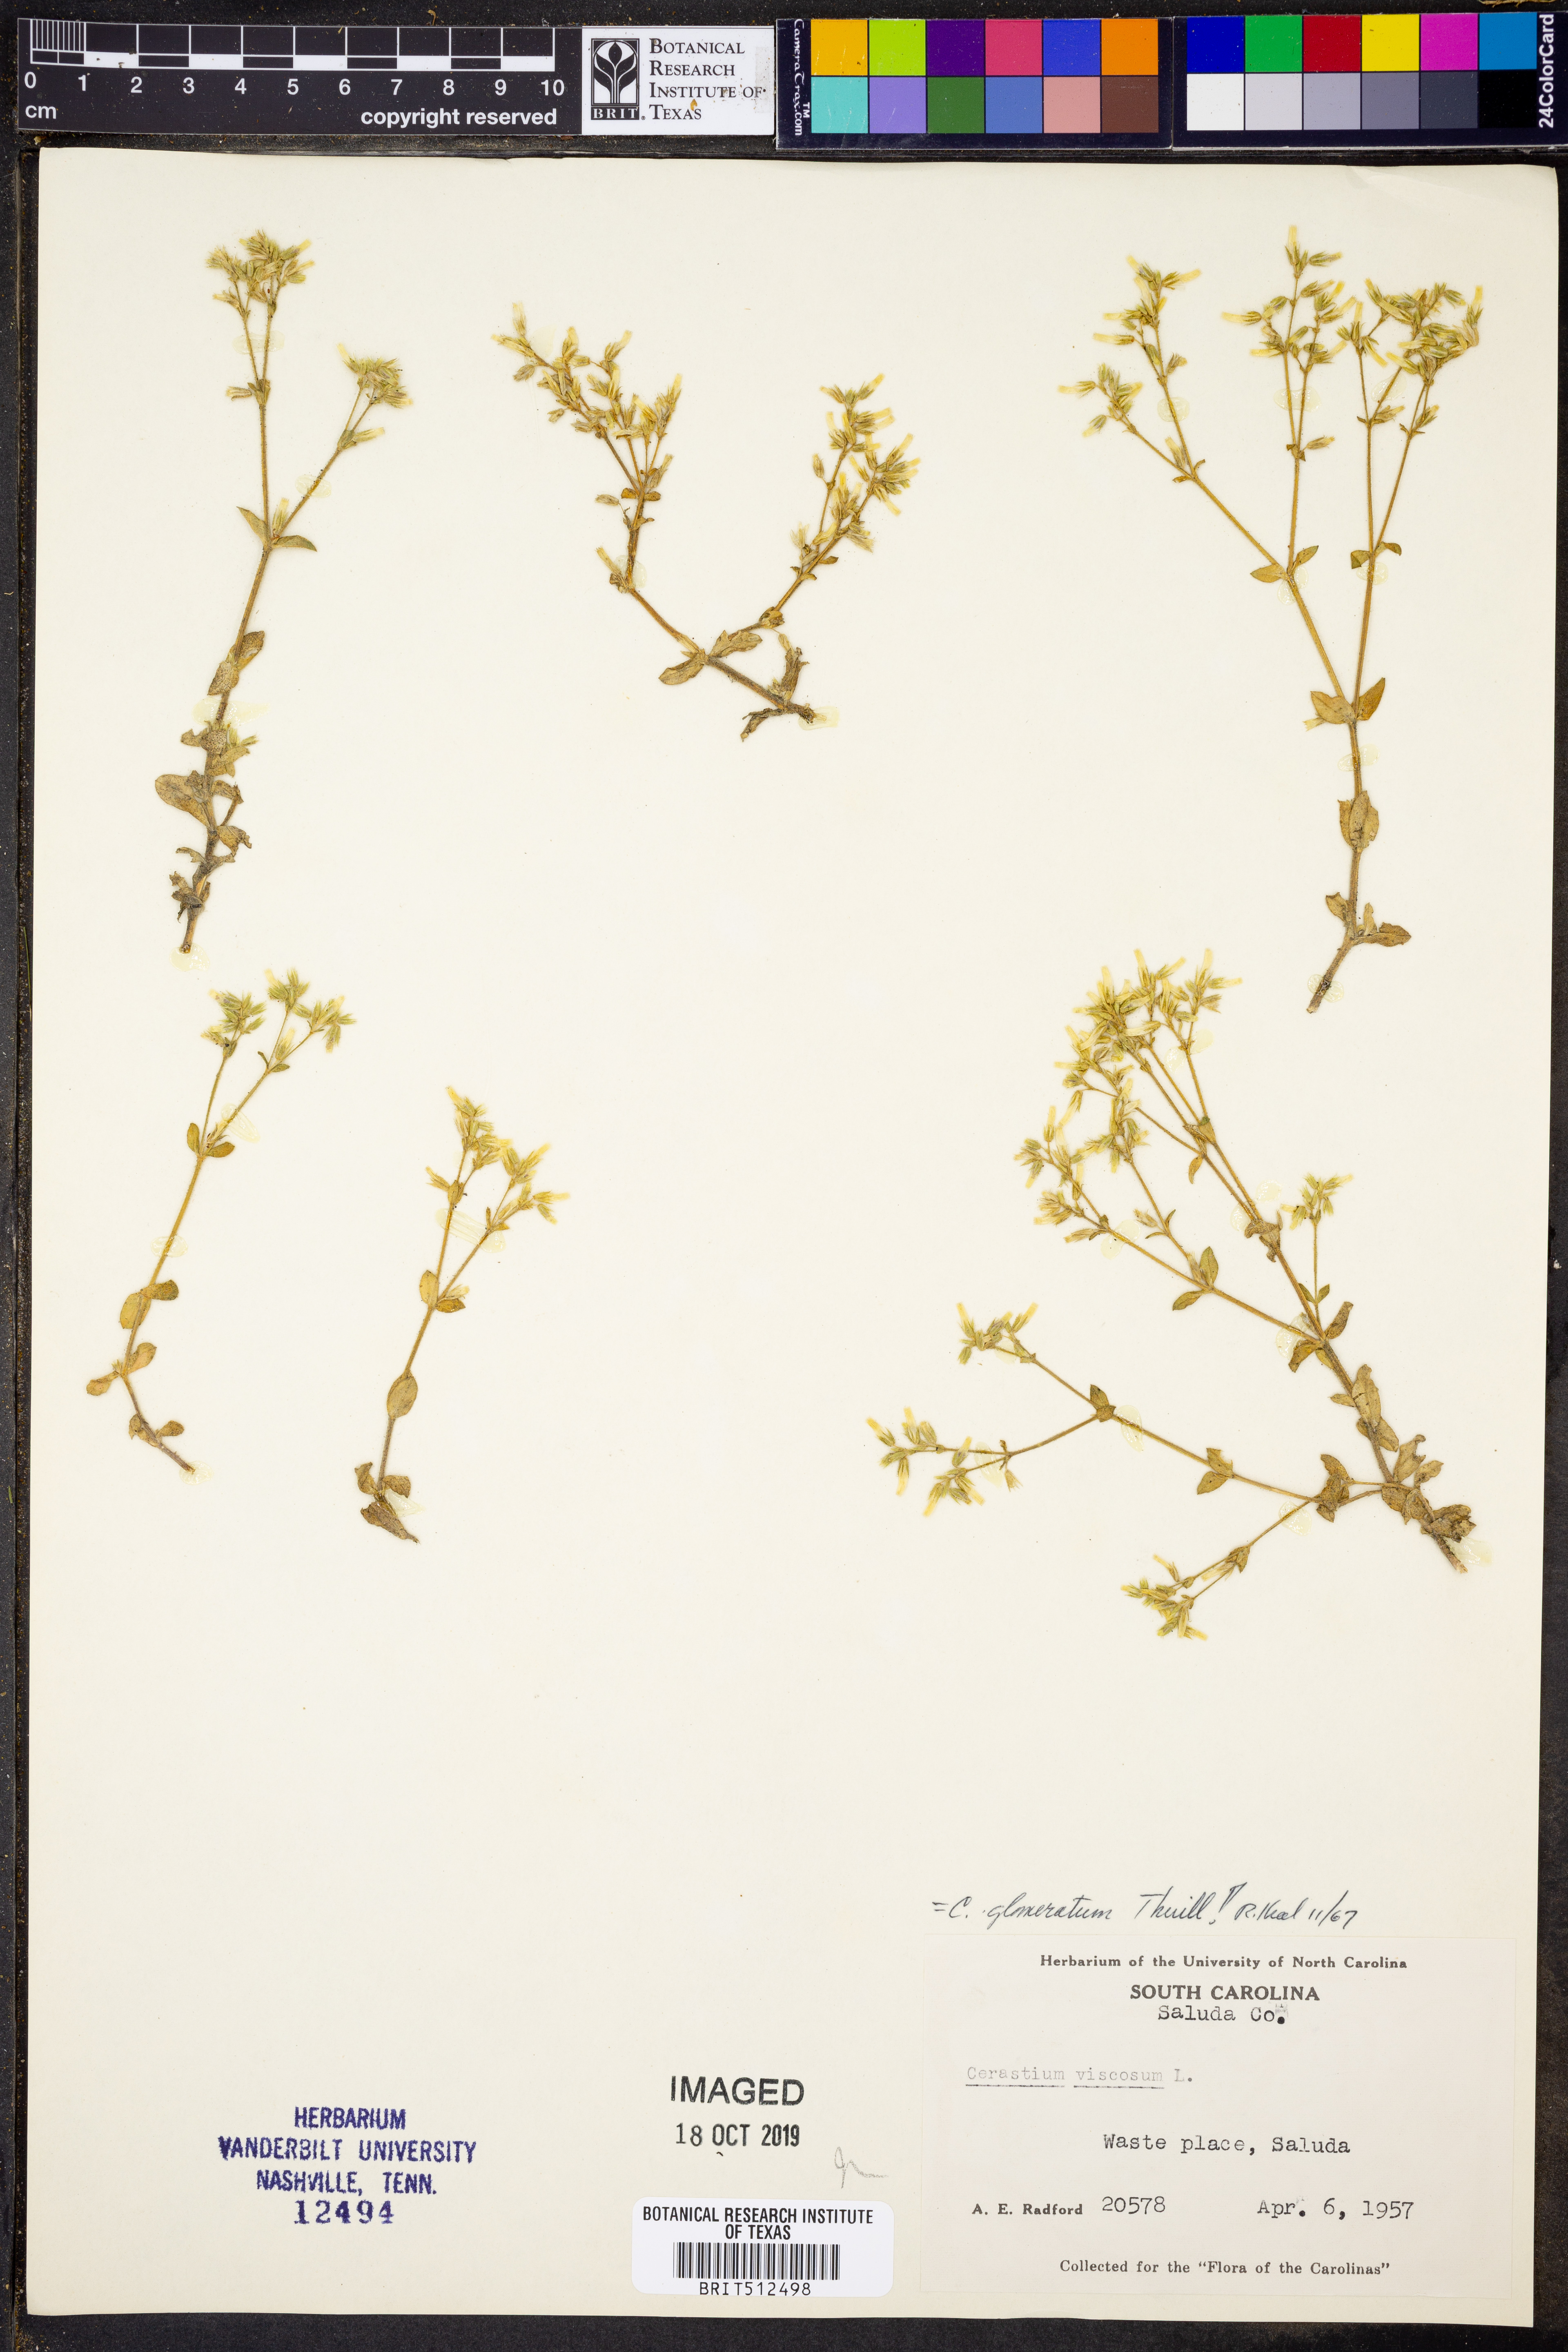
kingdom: Plantae
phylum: Tracheophyta
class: Magnoliopsida
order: Caryophyllales
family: Caryophyllaceae
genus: Cerastium
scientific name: Cerastium glomeratum
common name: Sticky chickweed
